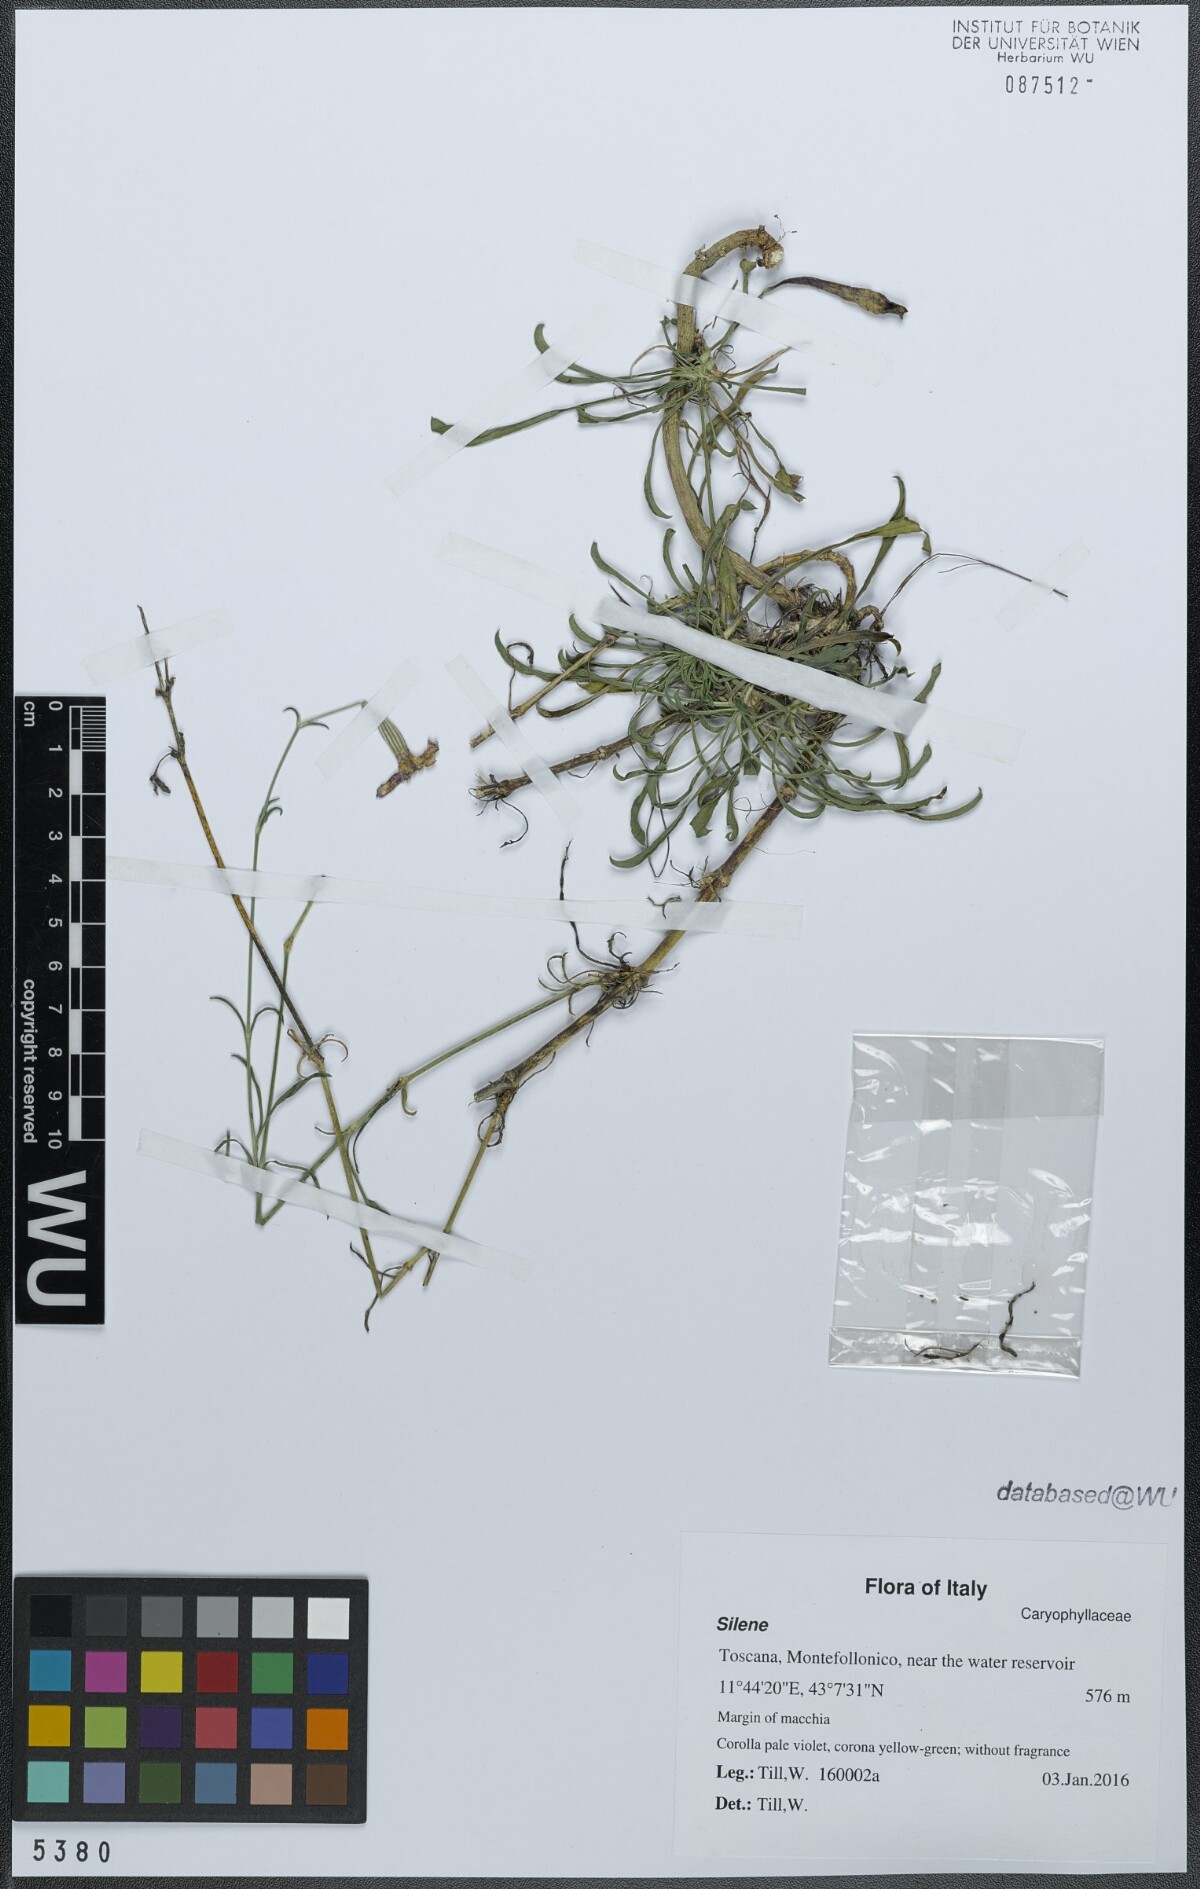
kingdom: Plantae
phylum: Tracheophyta
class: Magnoliopsida
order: Caryophyllales
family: Caryophyllaceae
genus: Silene
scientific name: Silene
